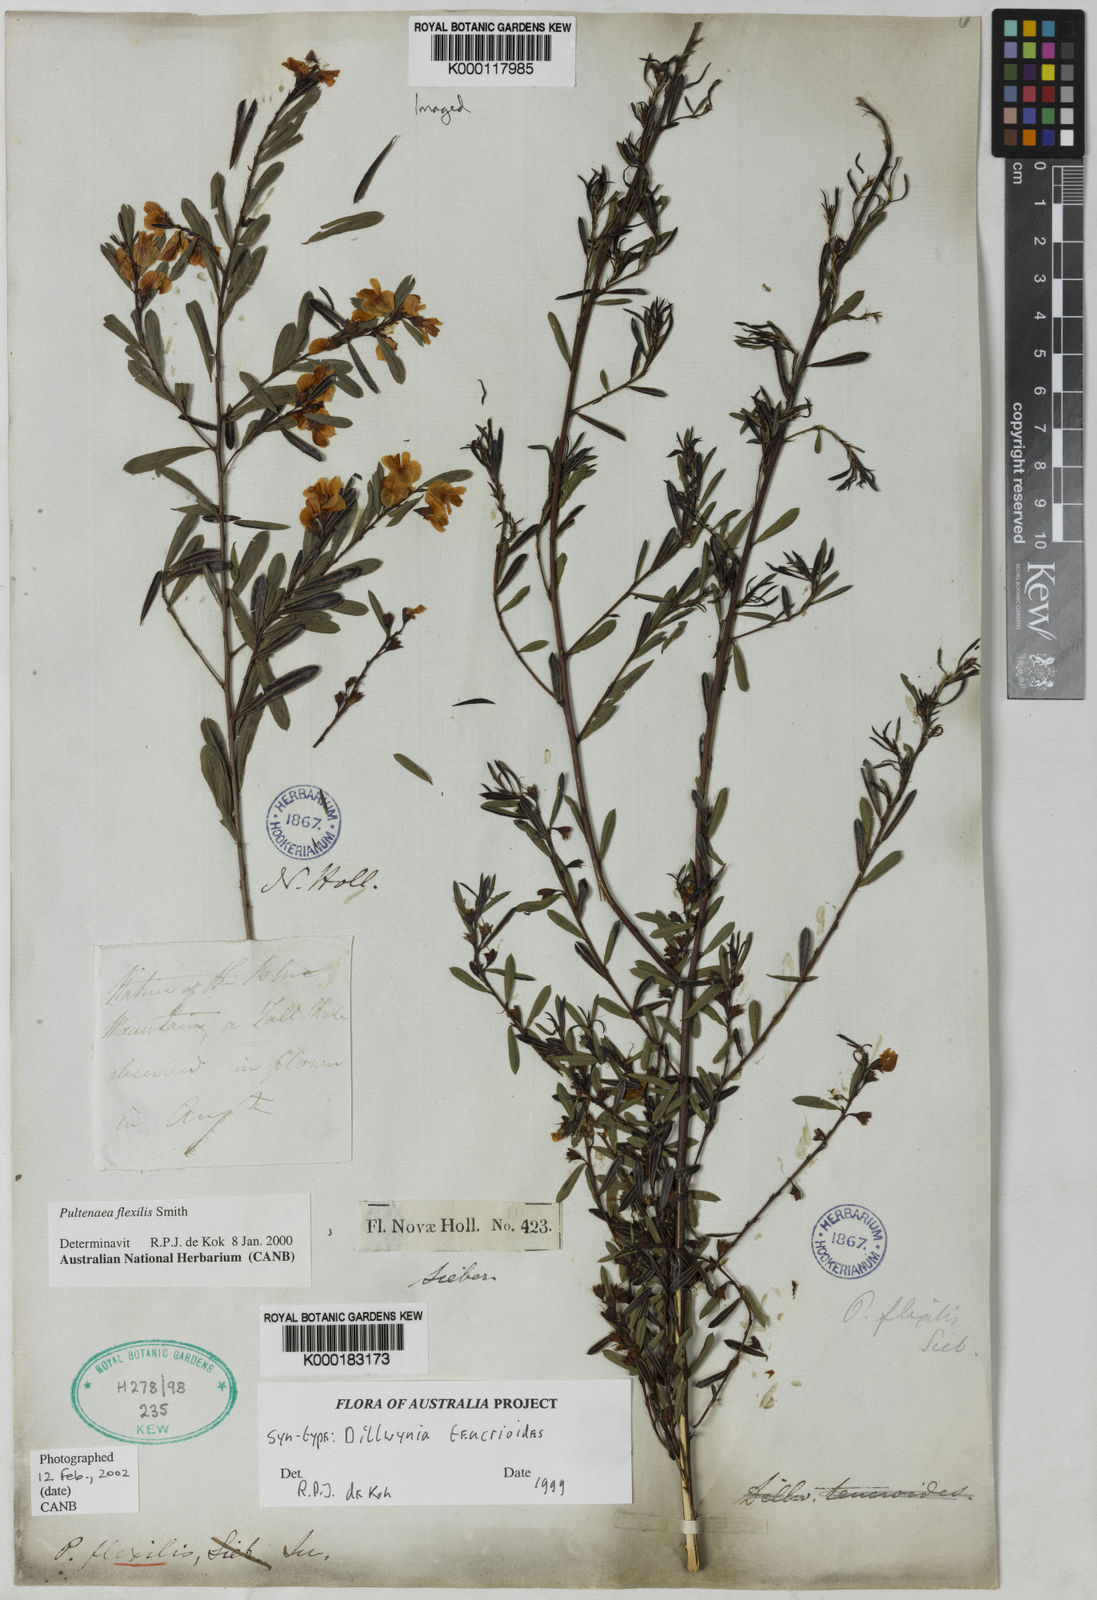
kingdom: Plantae
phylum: Tracheophyta
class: Magnoliopsida
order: Fabales
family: Fabaceae
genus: Pultenaea
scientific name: Pultenaea flexilis
